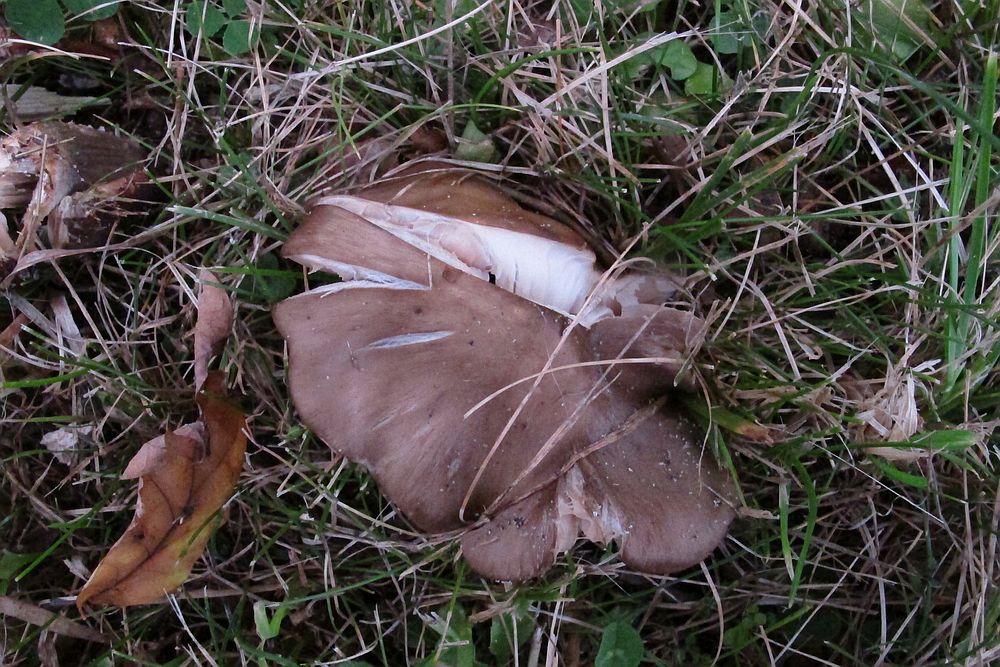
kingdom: Fungi
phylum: Basidiomycota
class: Agaricomycetes
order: Agaricales
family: Entolomataceae
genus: Entoloma
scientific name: Entoloma lividoalbum
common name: lysstokket rødblad
